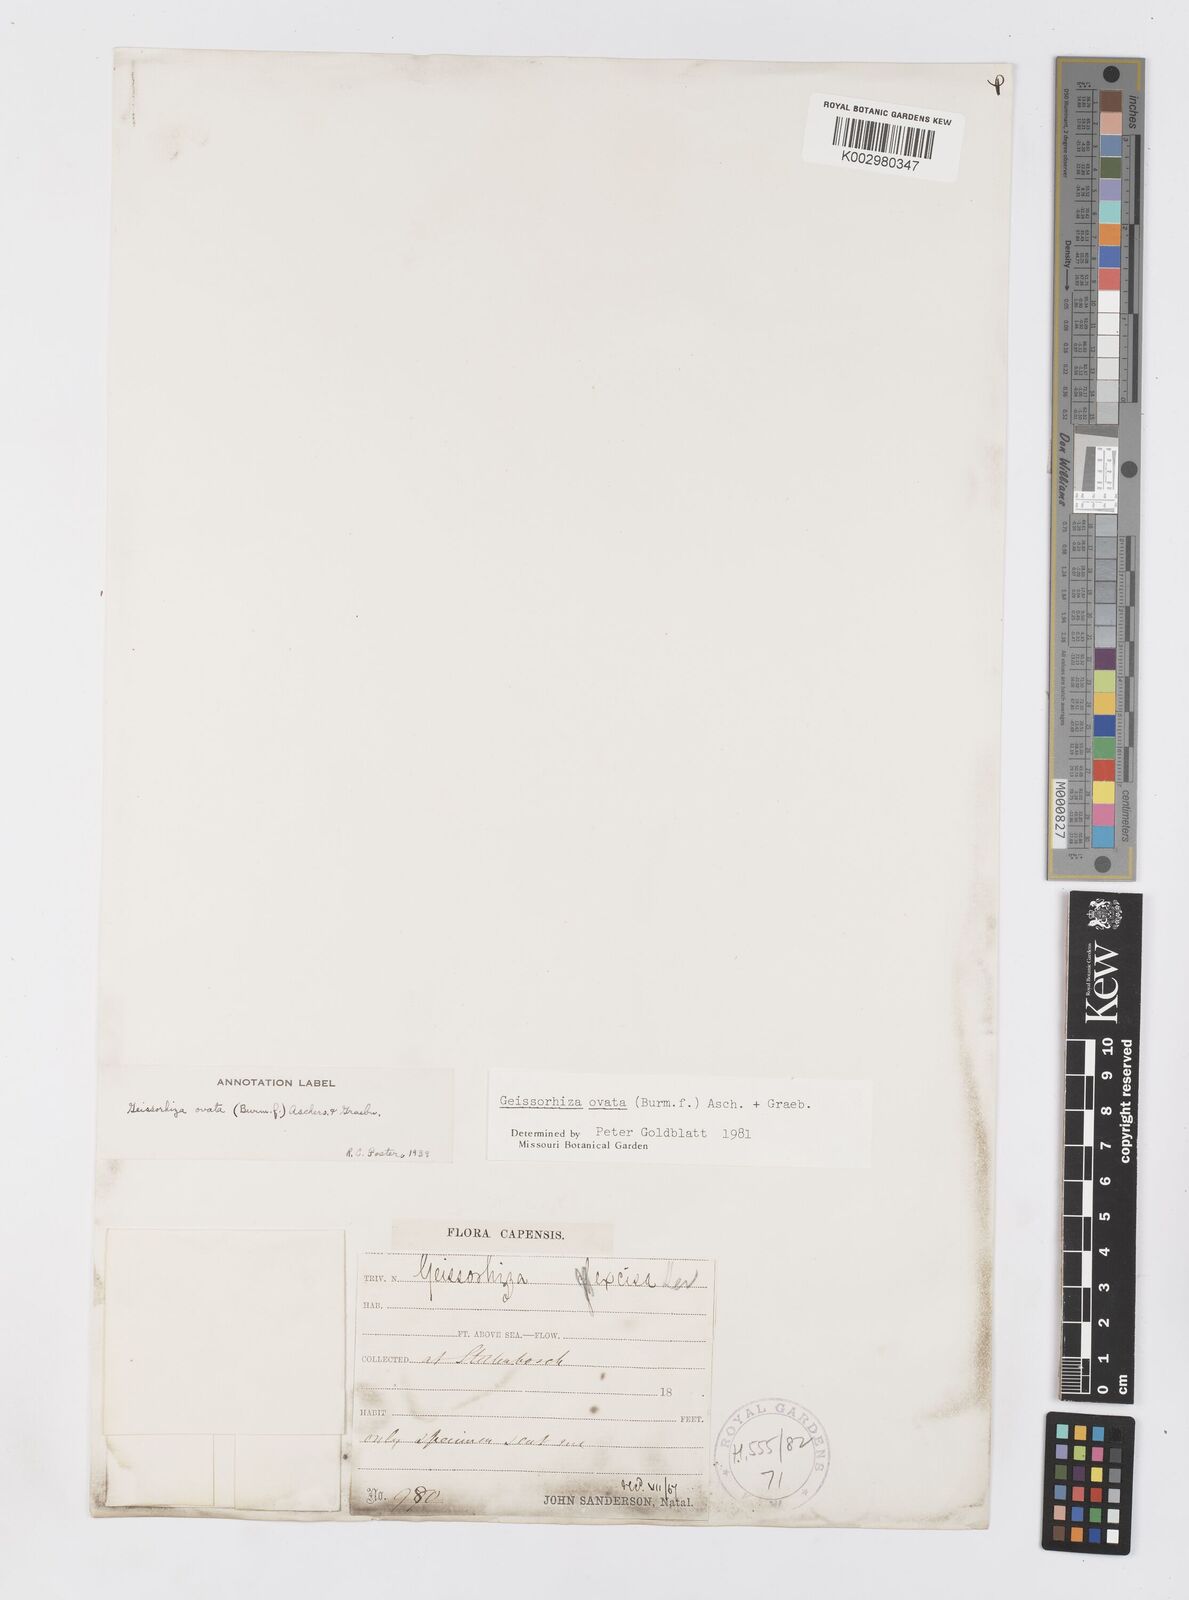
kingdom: Plantae
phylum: Tracheophyta
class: Liliopsida
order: Asparagales
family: Iridaceae
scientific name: Iridaceae
